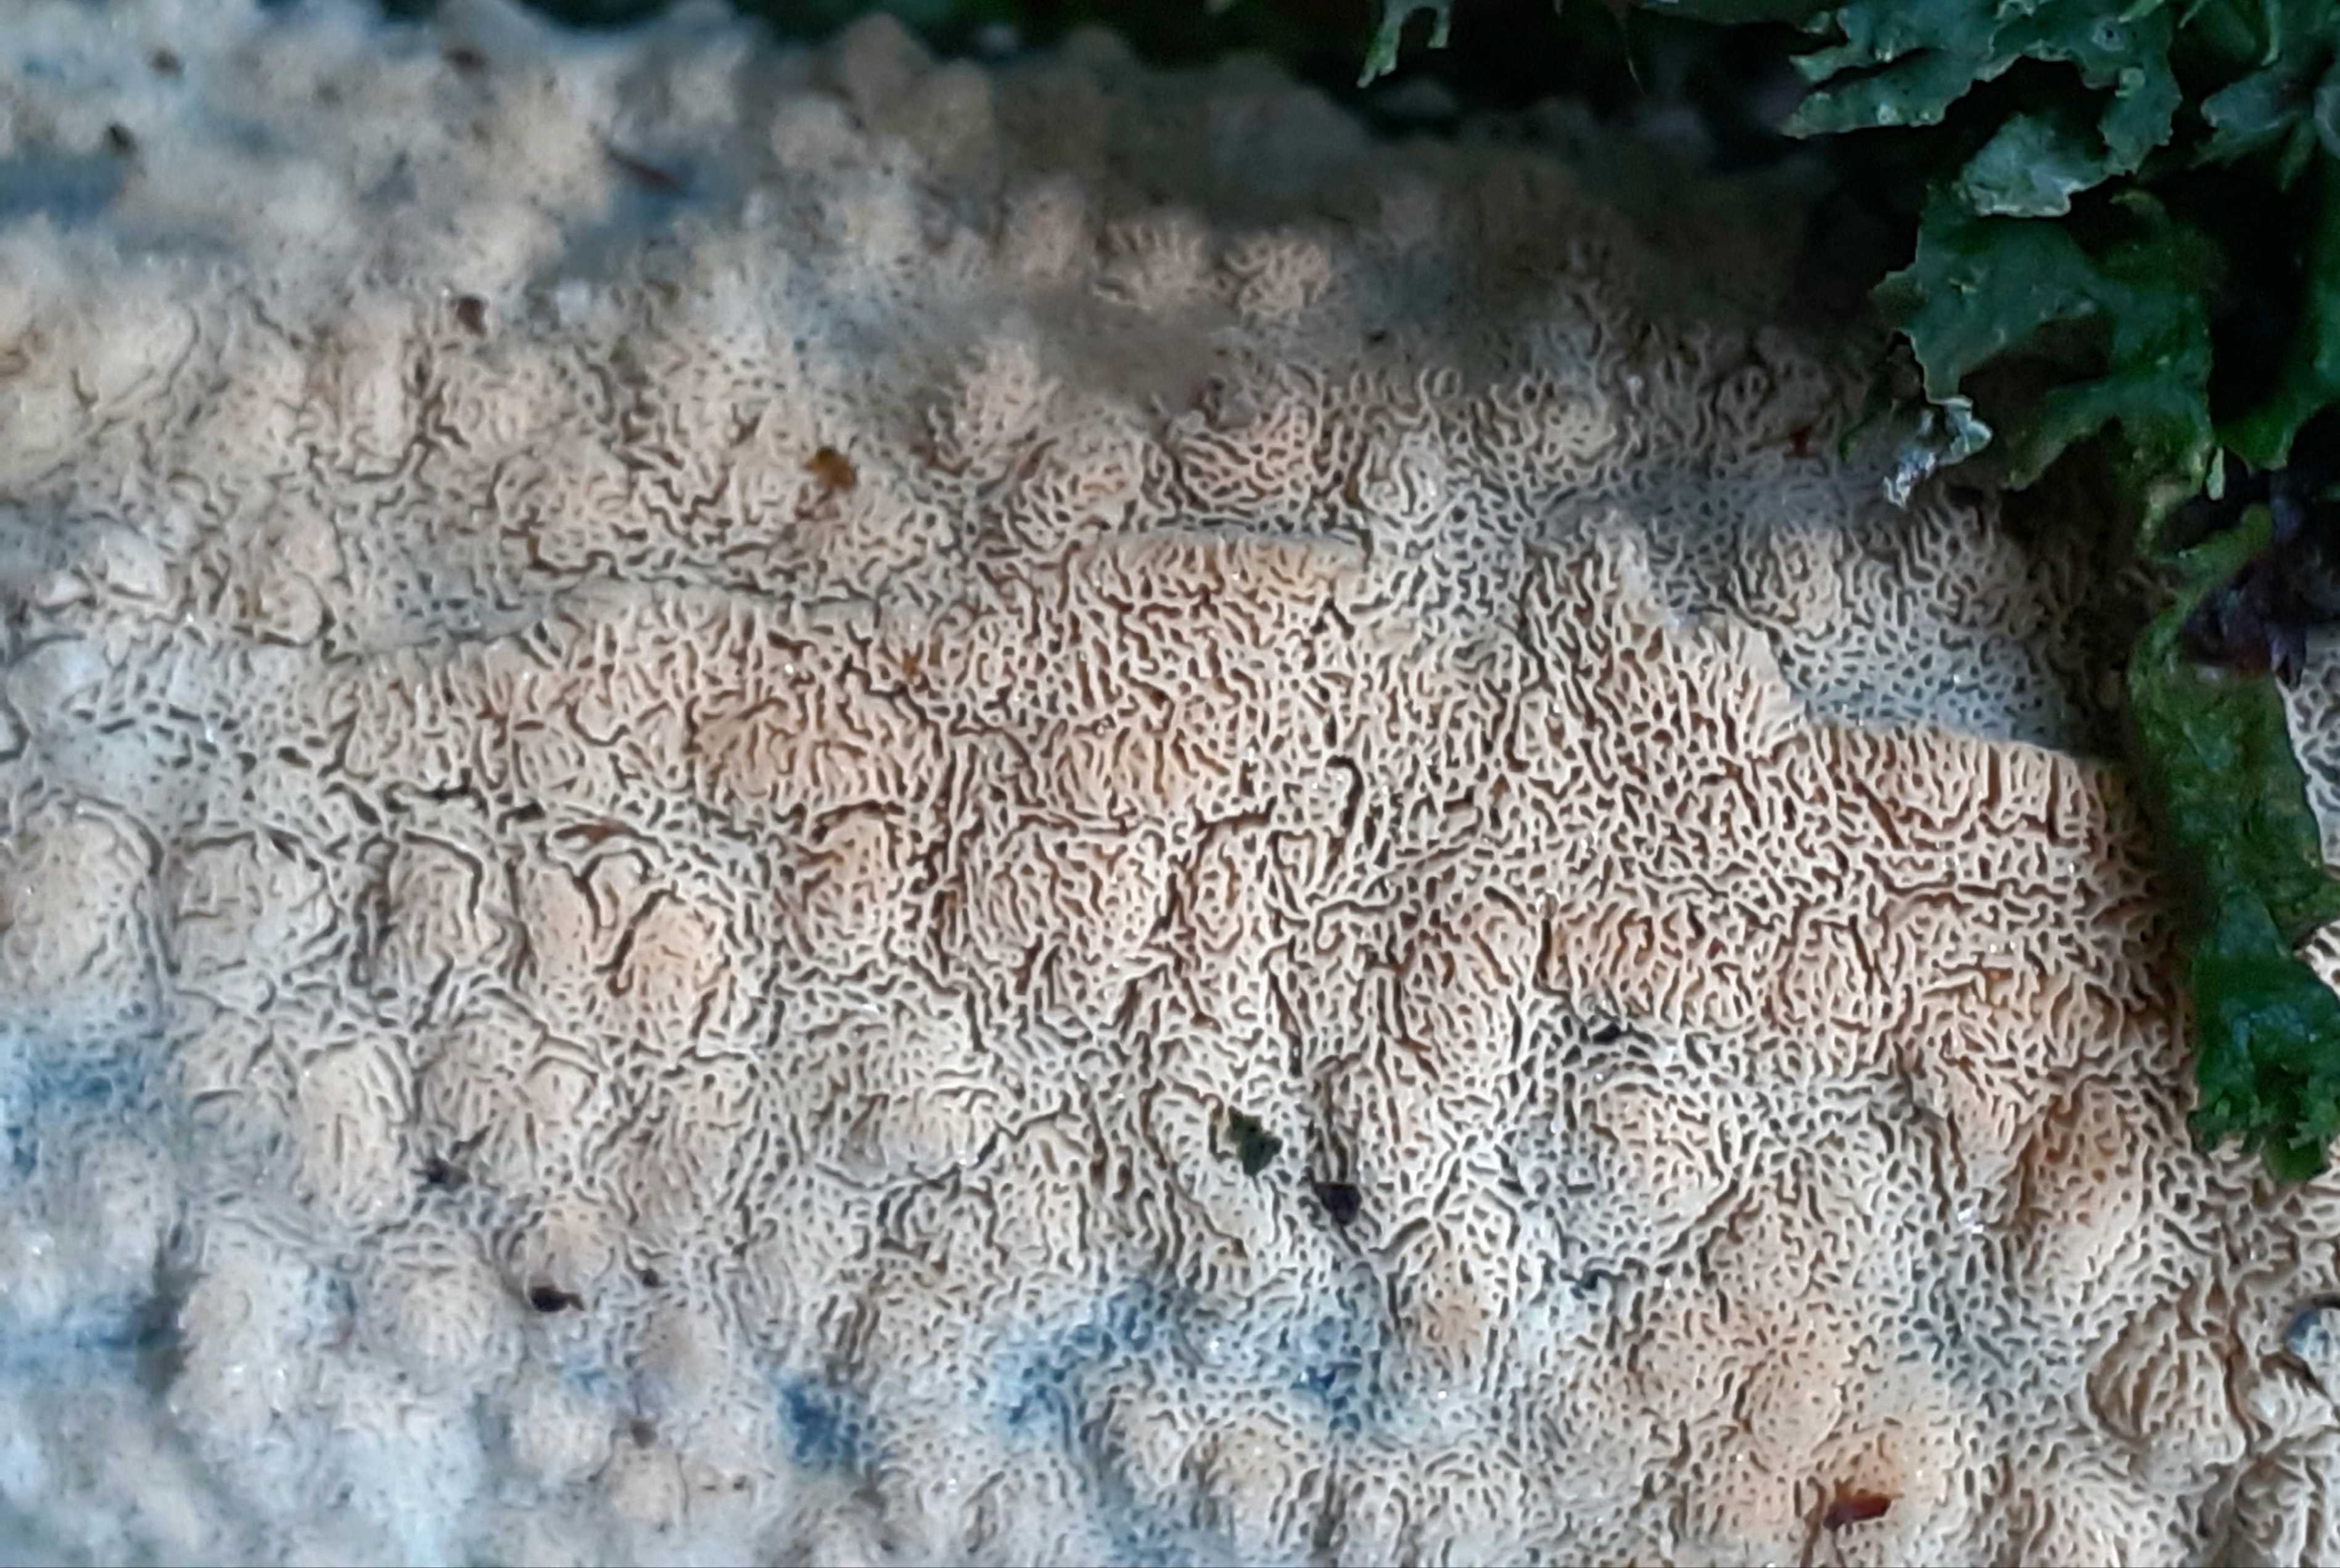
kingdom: Fungi
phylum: Basidiomycota
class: Agaricomycetes
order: Hymenochaetales
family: Schizoporaceae
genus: Xylodon
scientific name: Xylodon subtropicus
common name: labyrint-tandsvamp
